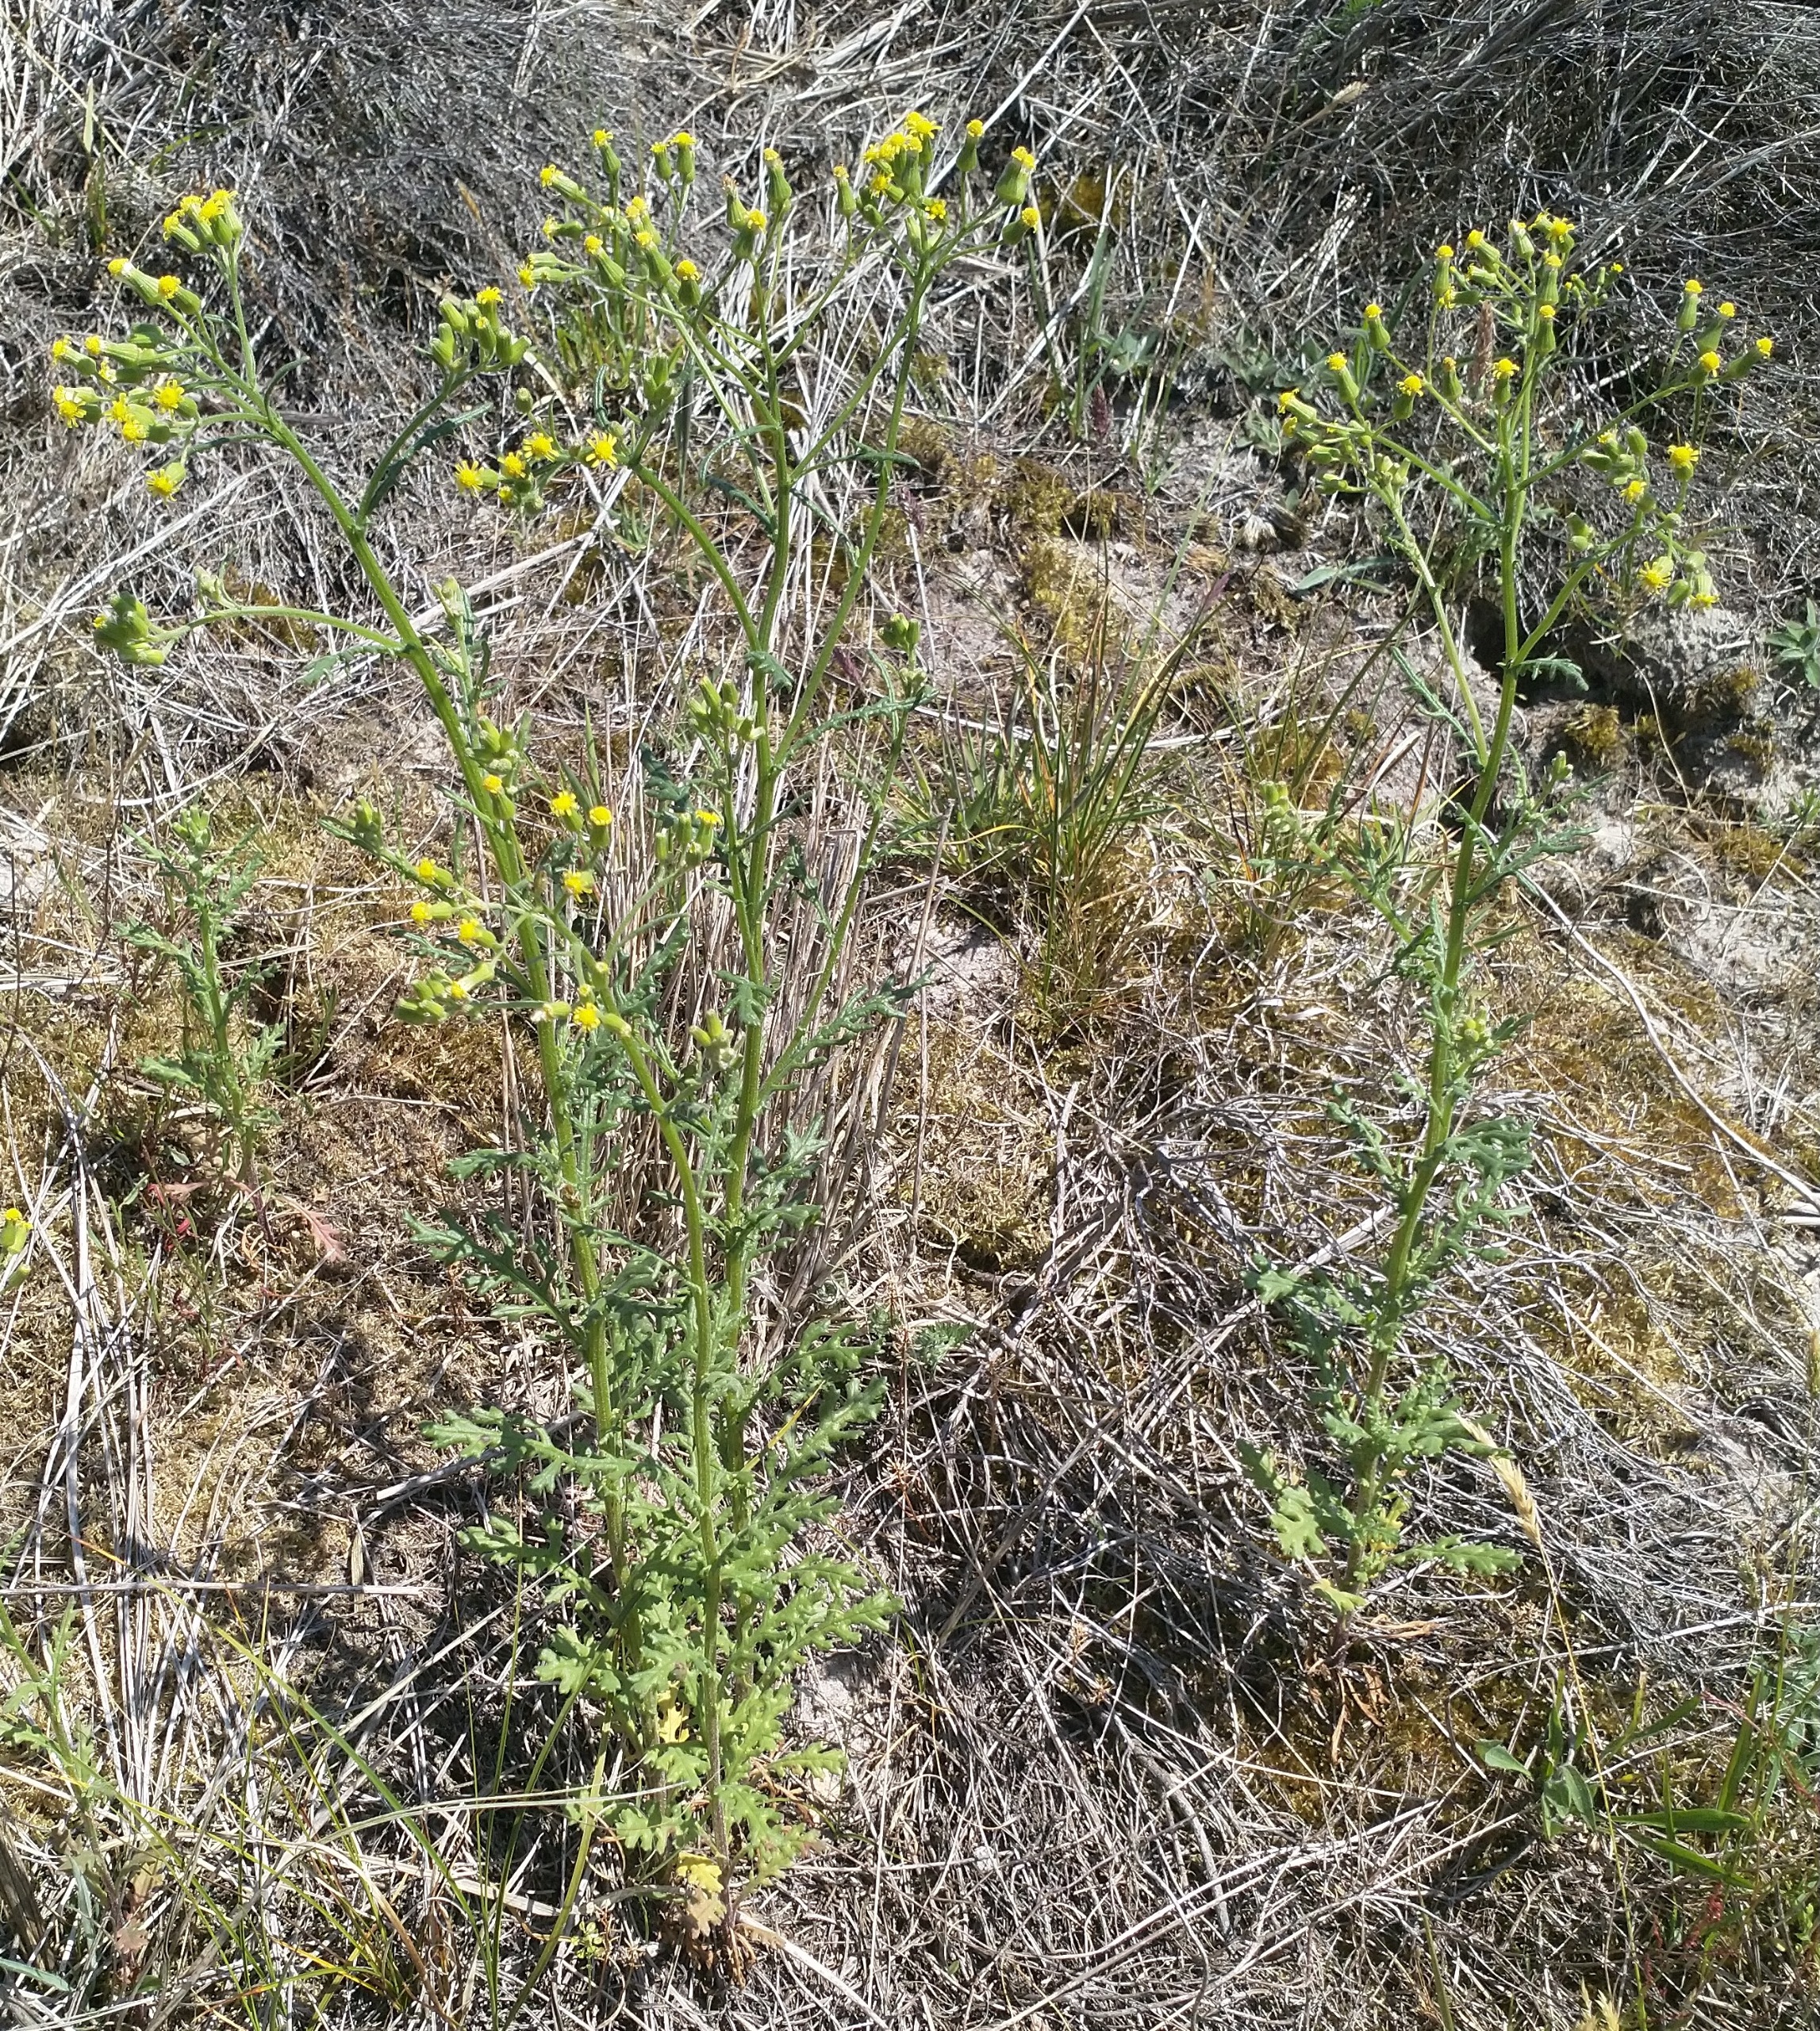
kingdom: Plantae
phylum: Tracheophyta
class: Magnoliopsida
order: Asterales
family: Asteraceae
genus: Senecio
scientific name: Senecio sylvaticus
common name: Skov-brandbæger
